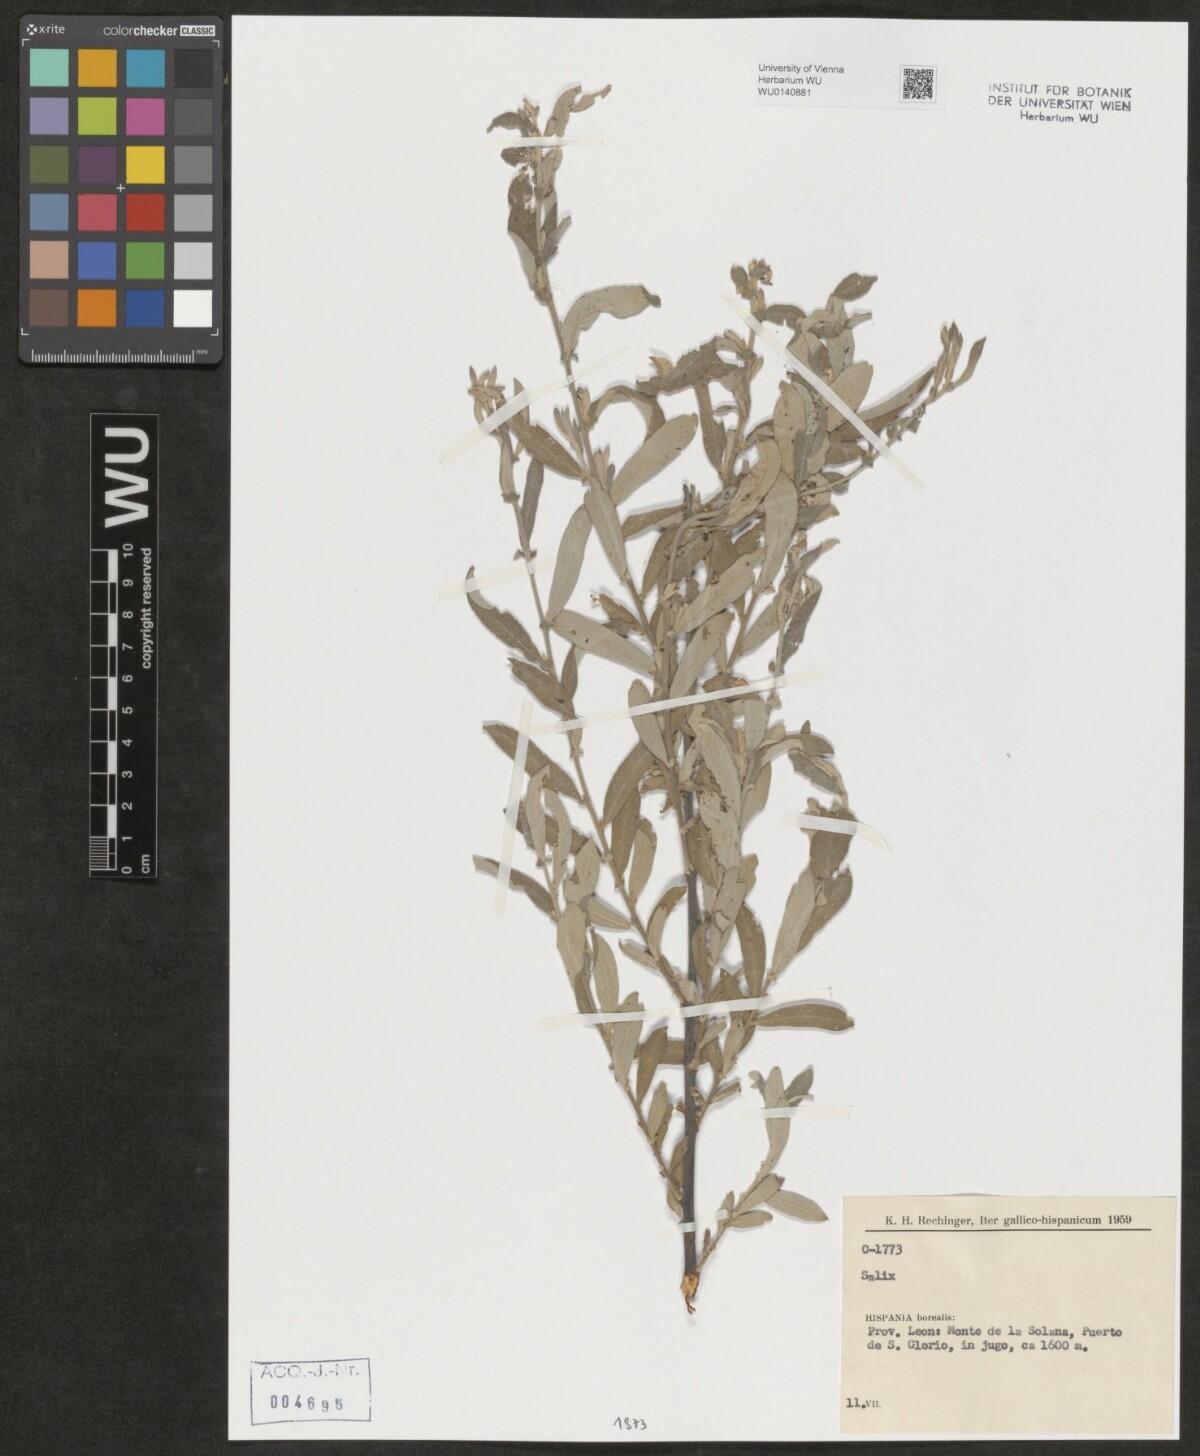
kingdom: Plantae
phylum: Tracheophyta
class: Magnoliopsida
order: Malpighiales
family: Salicaceae
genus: Salix
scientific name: Salix
